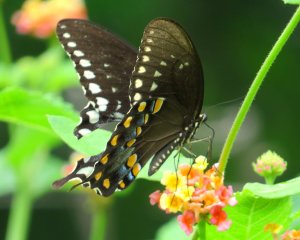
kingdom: Animalia
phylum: Arthropoda
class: Insecta
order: Lepidoptera
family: Papilionidae
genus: Pterourus
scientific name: Pterourus troilus
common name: Spicebush Swallowtail
